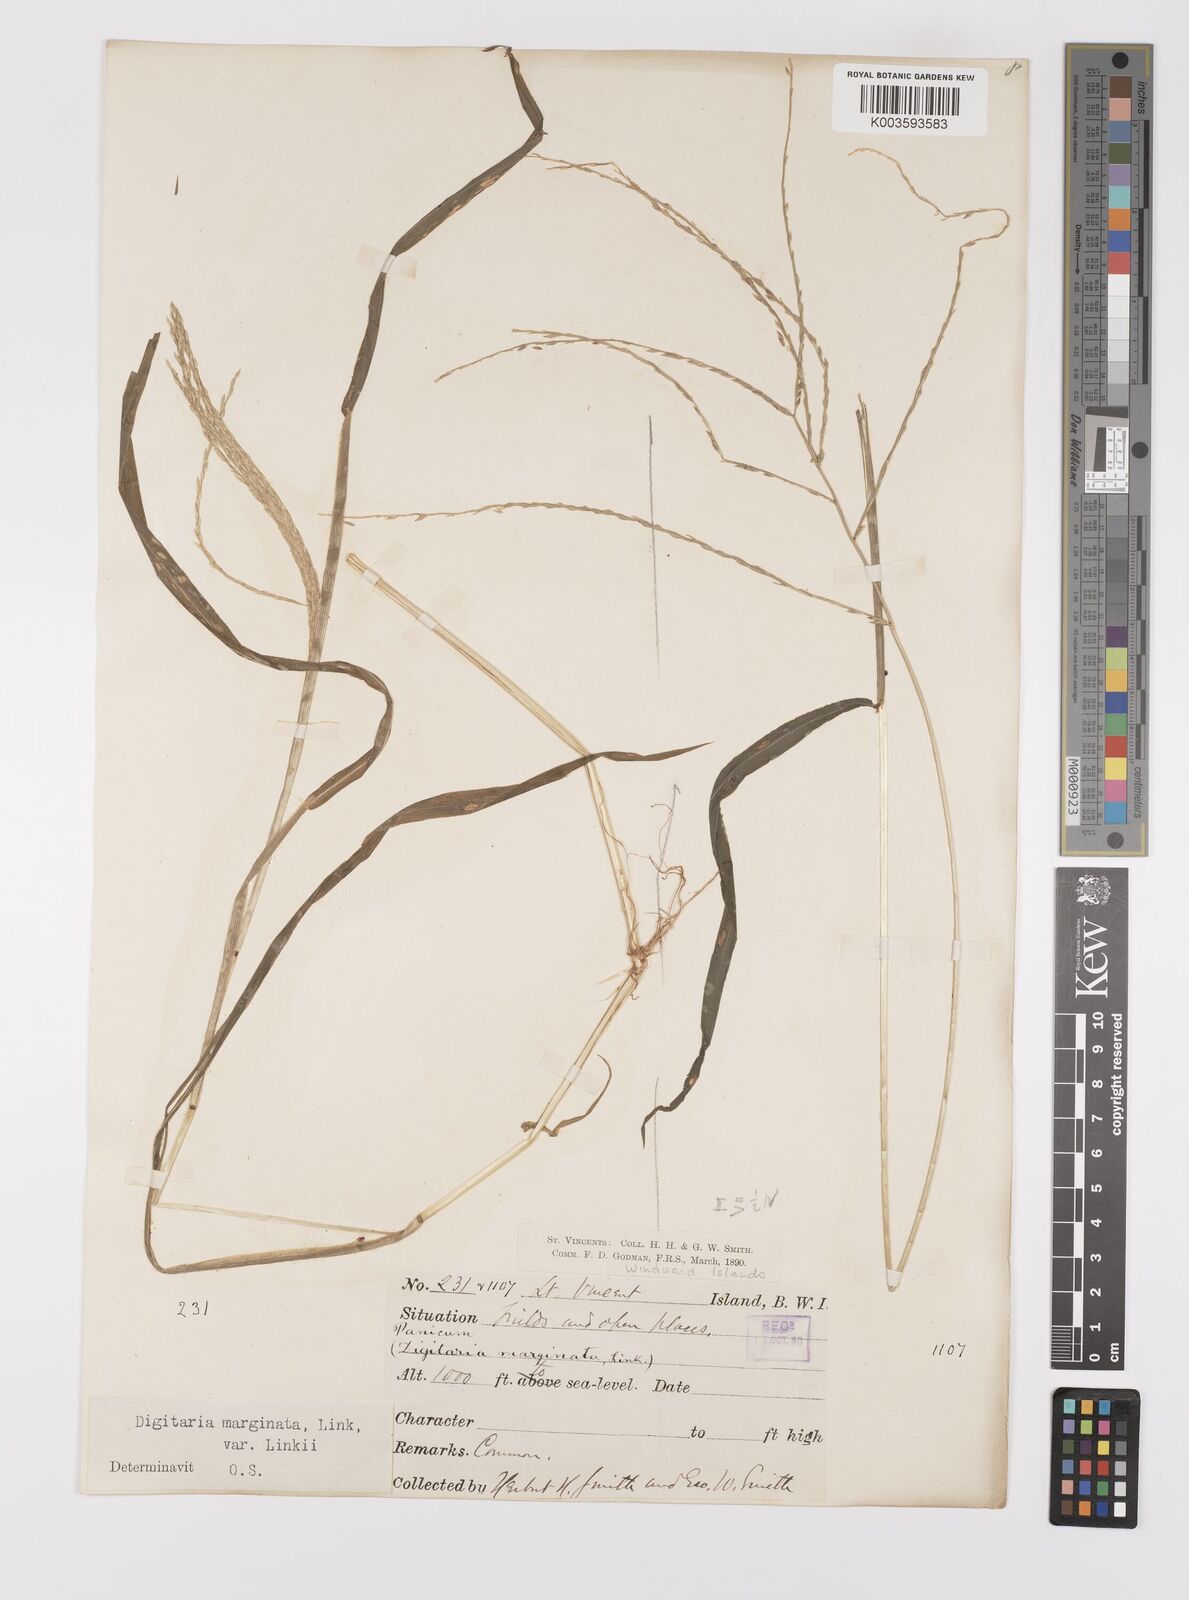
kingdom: Plantae
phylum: Tracheophyta
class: Liliopsida
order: Poales
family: Poaceae
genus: Digitaria
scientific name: Digitaria ciliaris
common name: Tropical finger-grass
